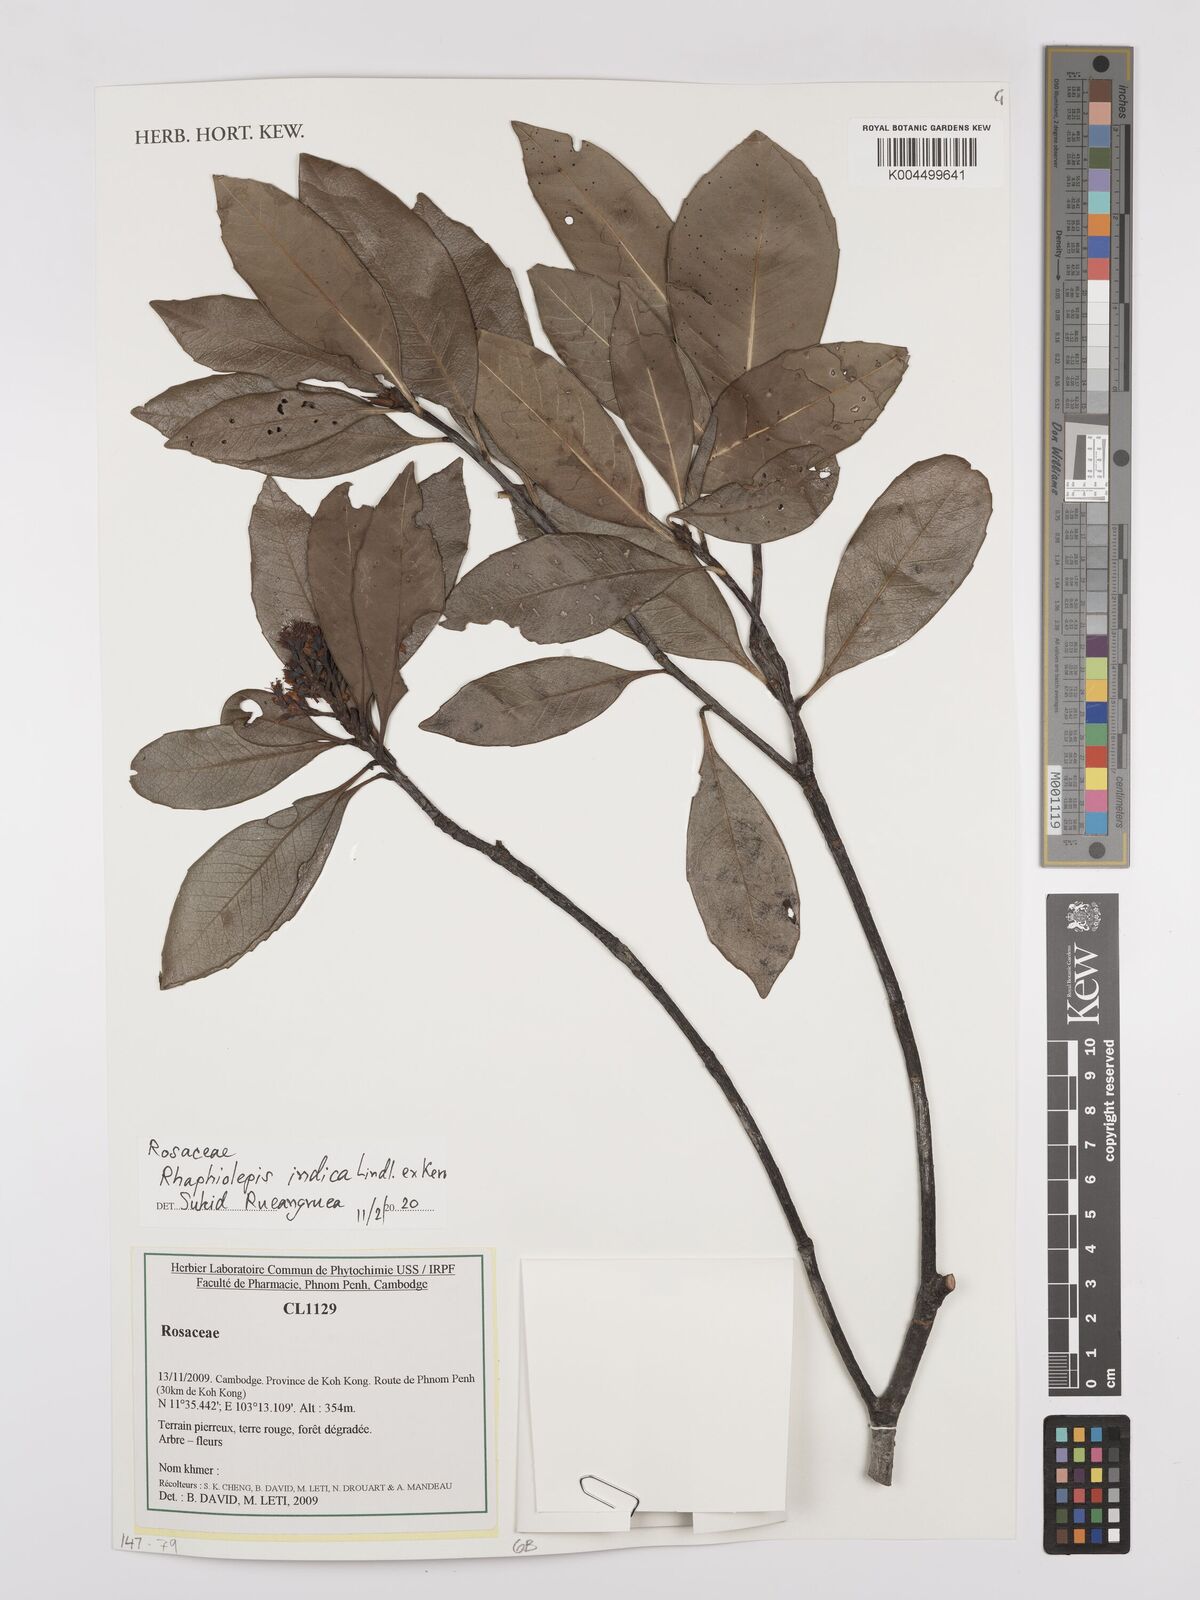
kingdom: Plantae
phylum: Tracheophyta
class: Magnoliopsida
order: Rosales
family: Rosaceae
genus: Rhaphiolepis
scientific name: Rhaphiolepis indica
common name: India-hawthorn
